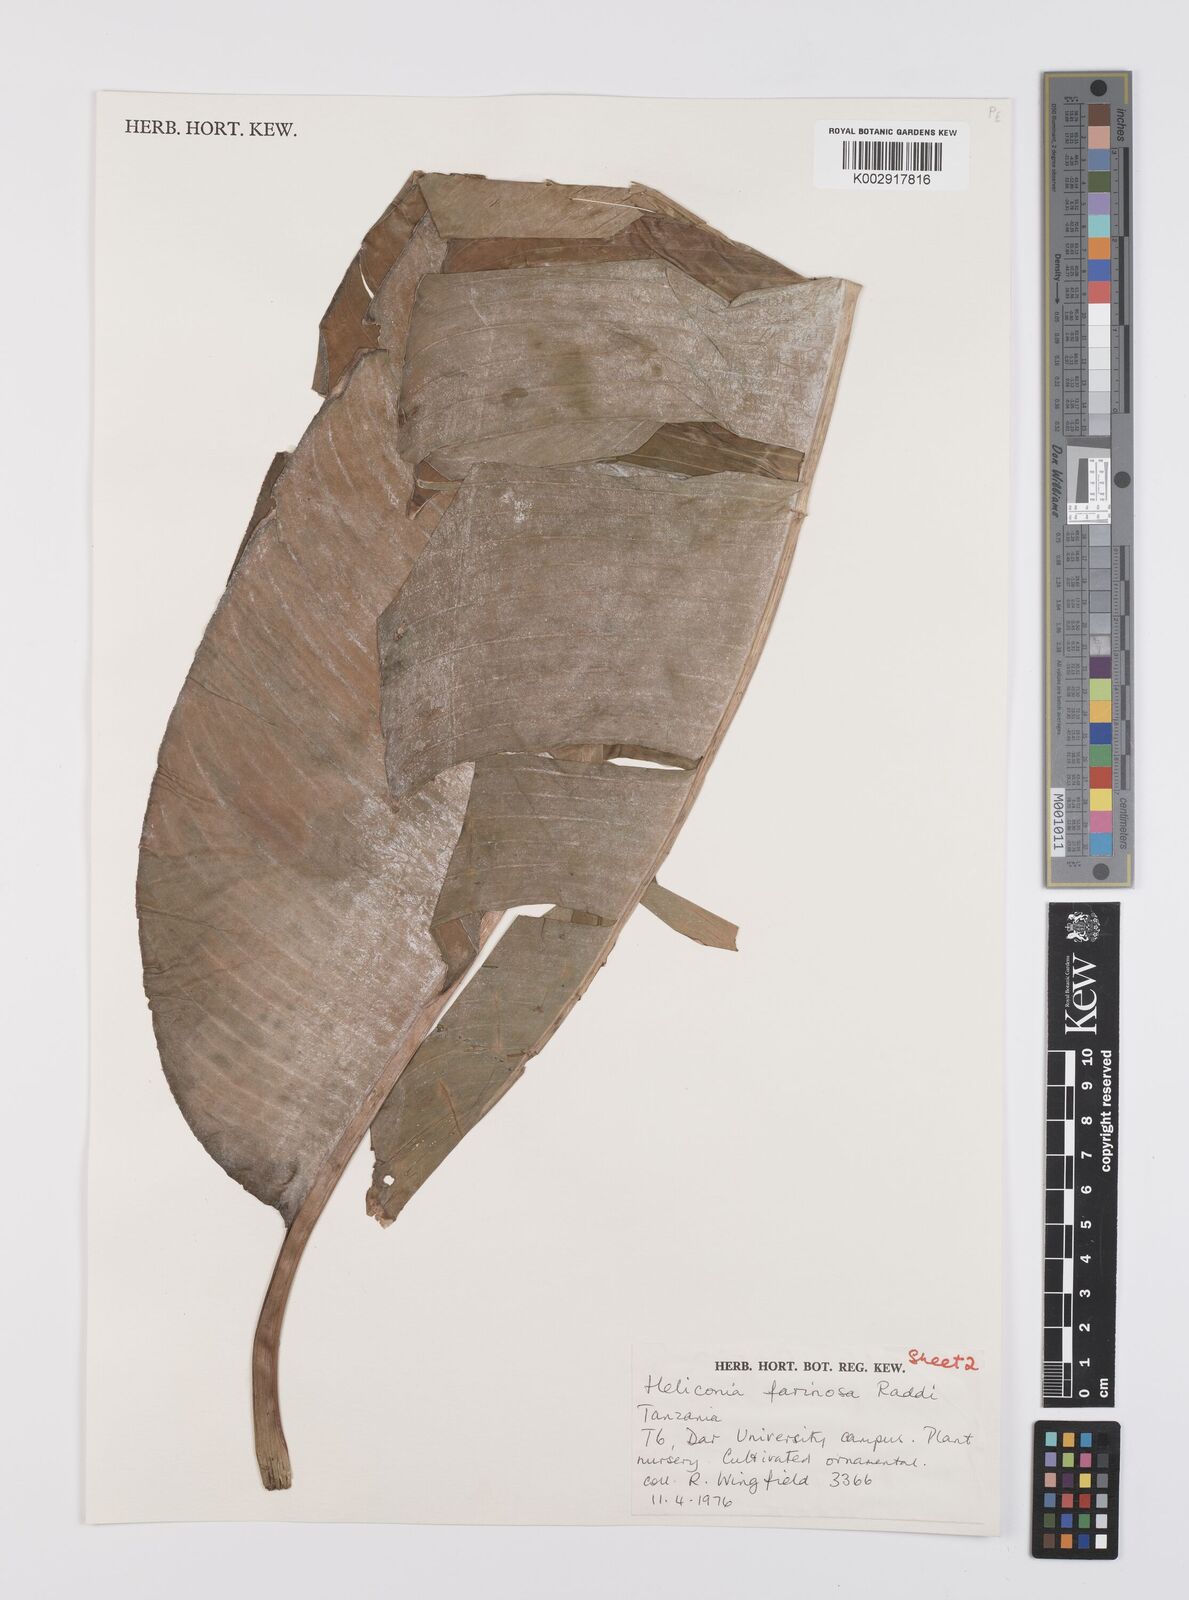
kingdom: Plantae
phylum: Tracheophyta
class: Liliopsida
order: Zingiberales
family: Heliconiaceae
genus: Heliconia
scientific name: Heliconia collinsiana
